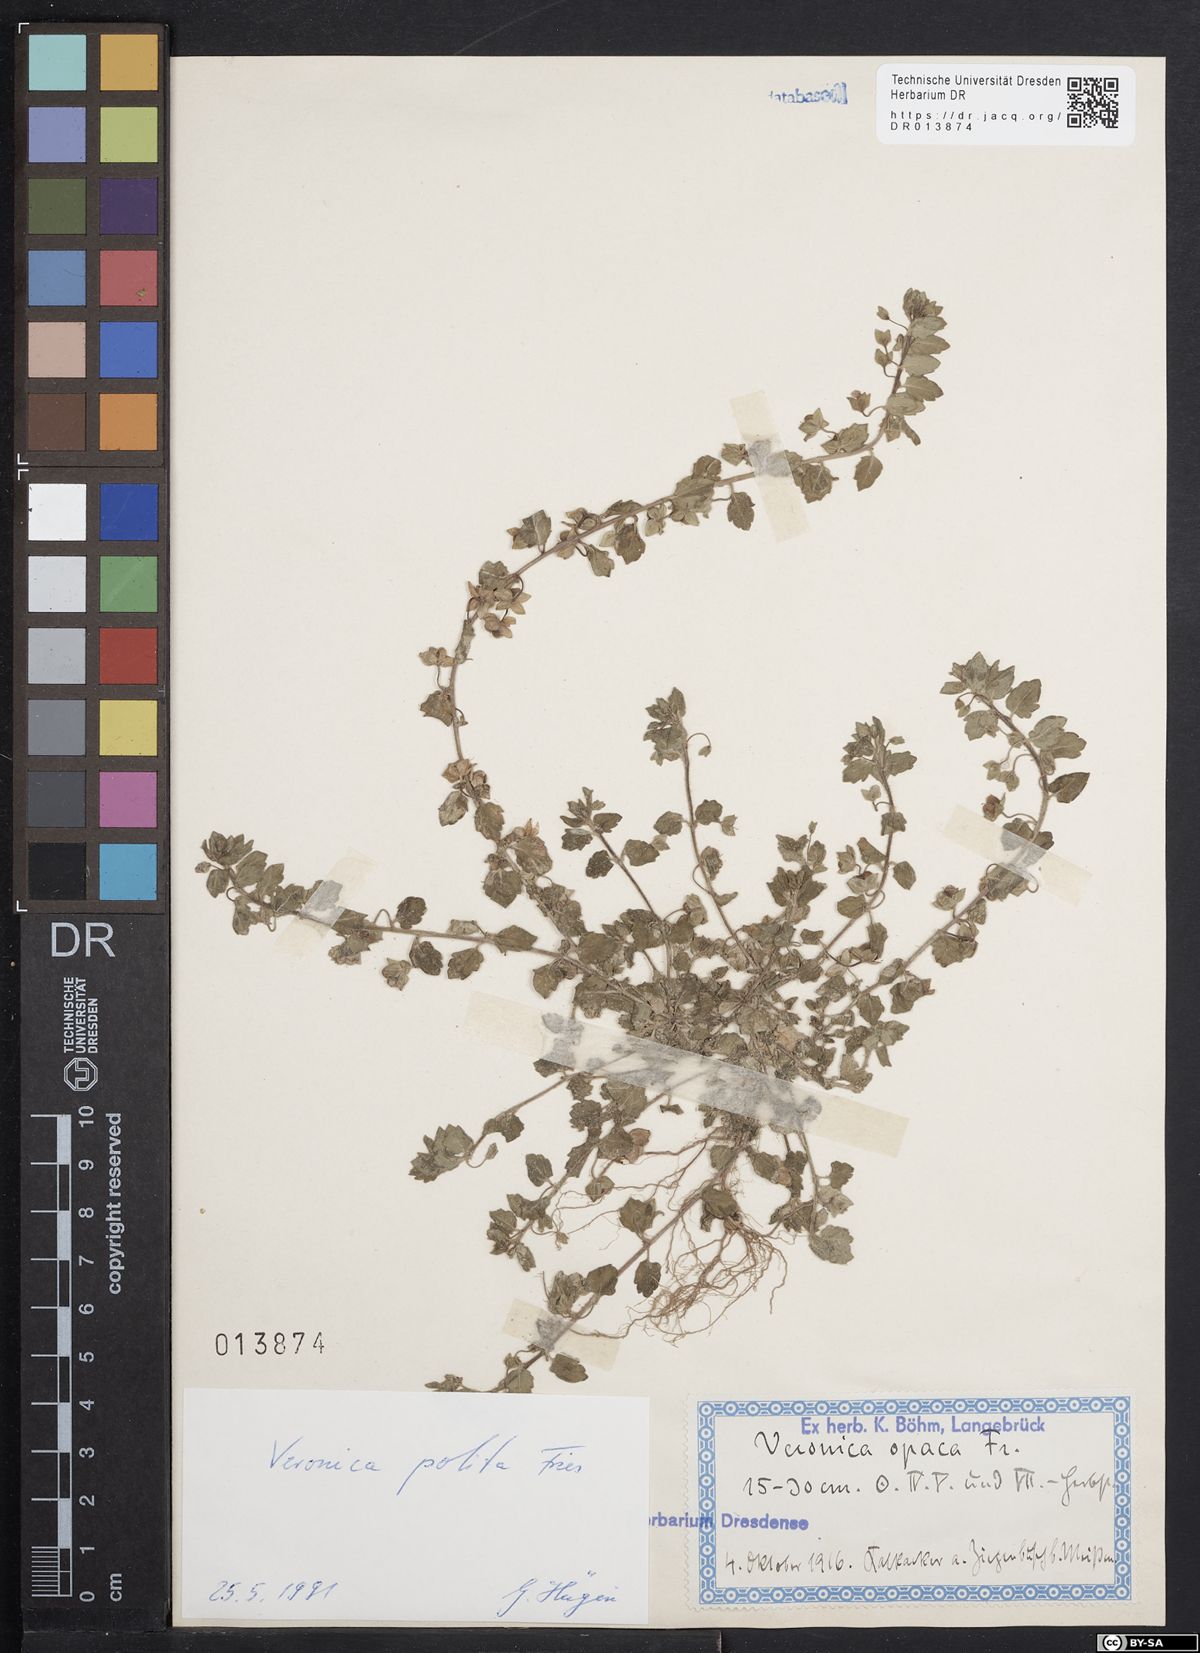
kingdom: Plantae
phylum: Tracheophyta
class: Magnoliopsida
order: Lamiales
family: Plantaginaceae
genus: Veronica
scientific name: Veronica polita
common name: Grey field-speedwell
